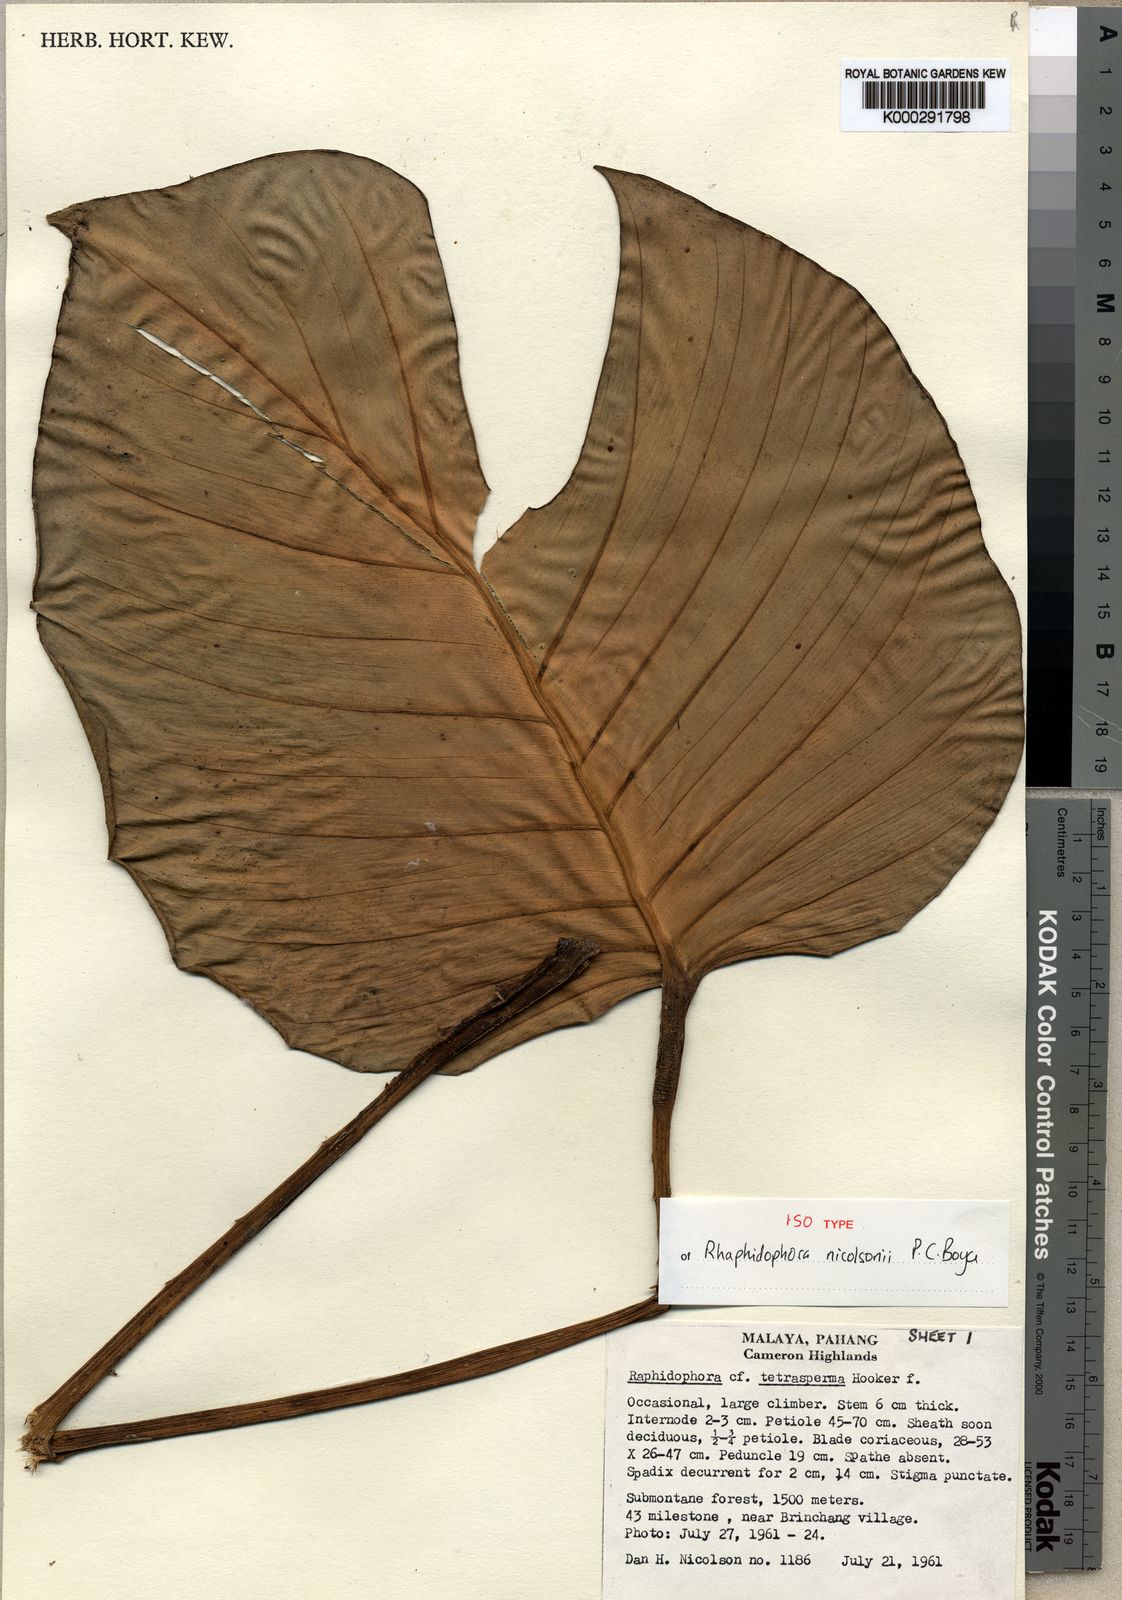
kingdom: Plantae
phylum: Tracheophyta
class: Liliopsida
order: Alismatales
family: Araceae
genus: Rhaphidophora
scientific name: Rhaphidophora nicolsonii
